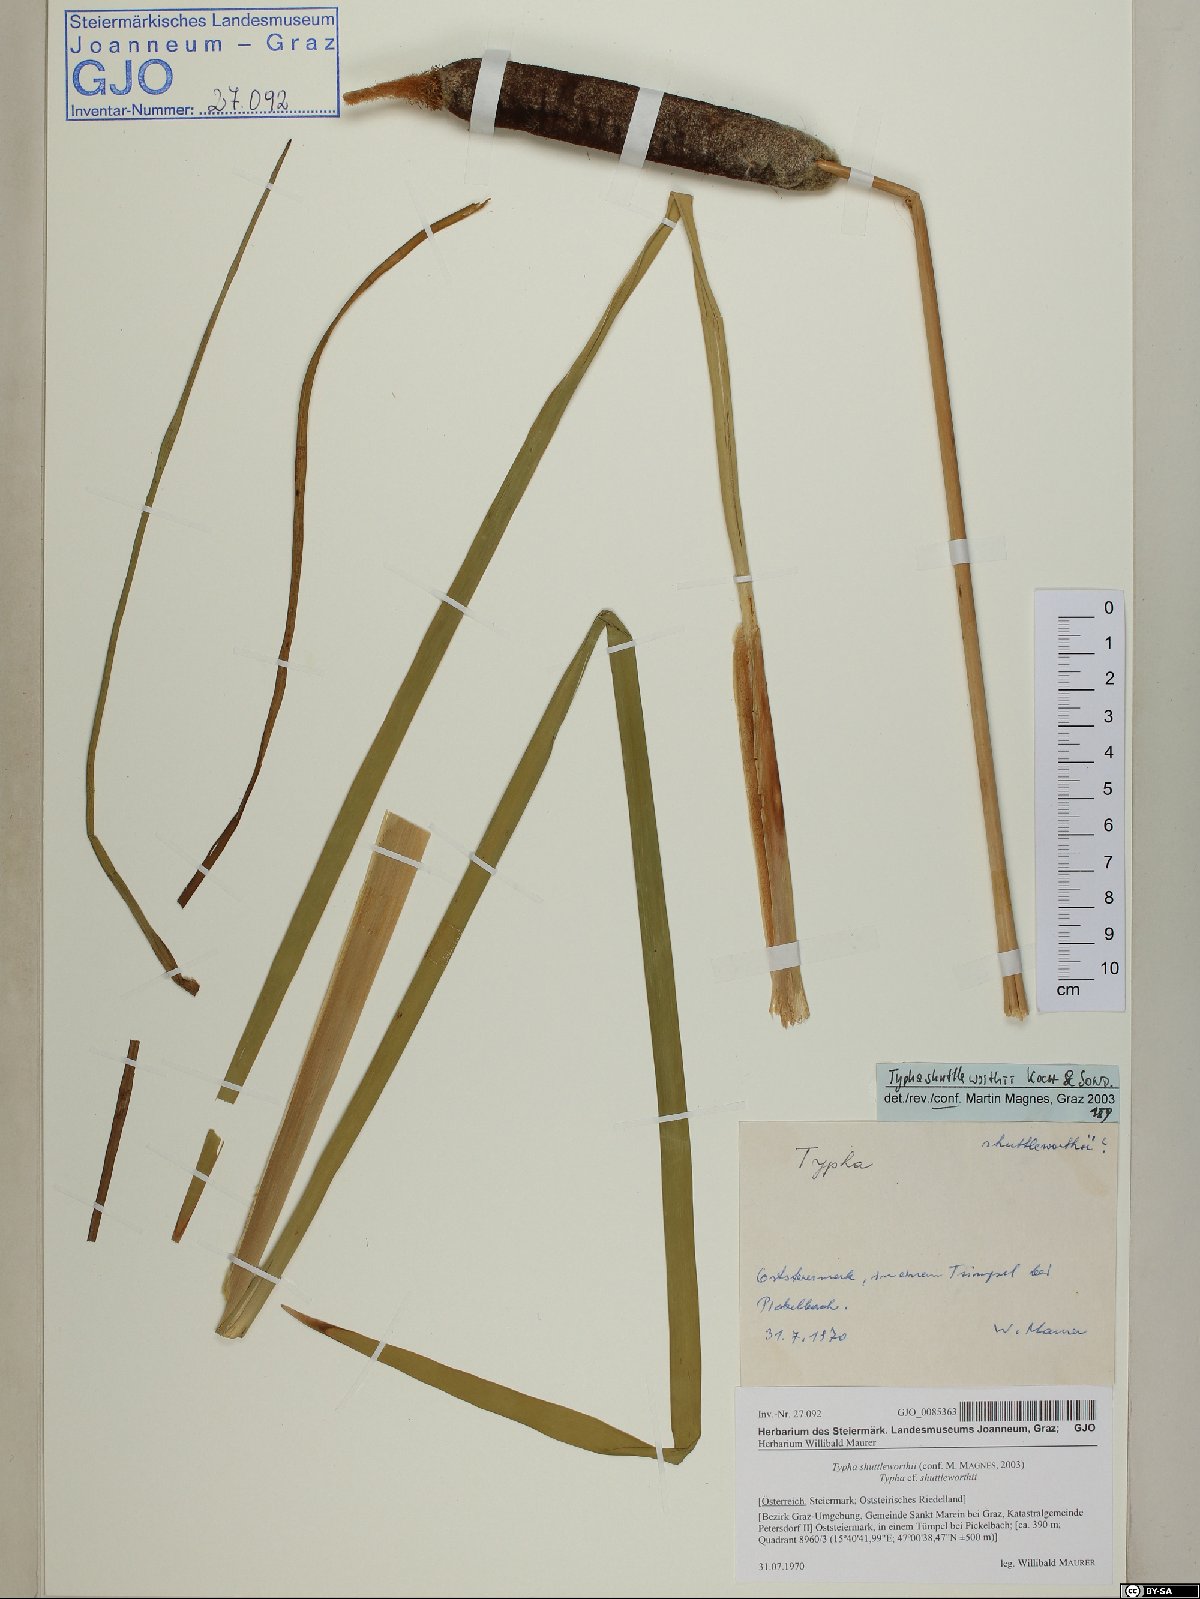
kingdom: Plantae
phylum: Tracheophyta
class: Liliopsida
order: Poales
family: Typhaceae
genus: Typha
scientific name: Typha shuttleworthii
